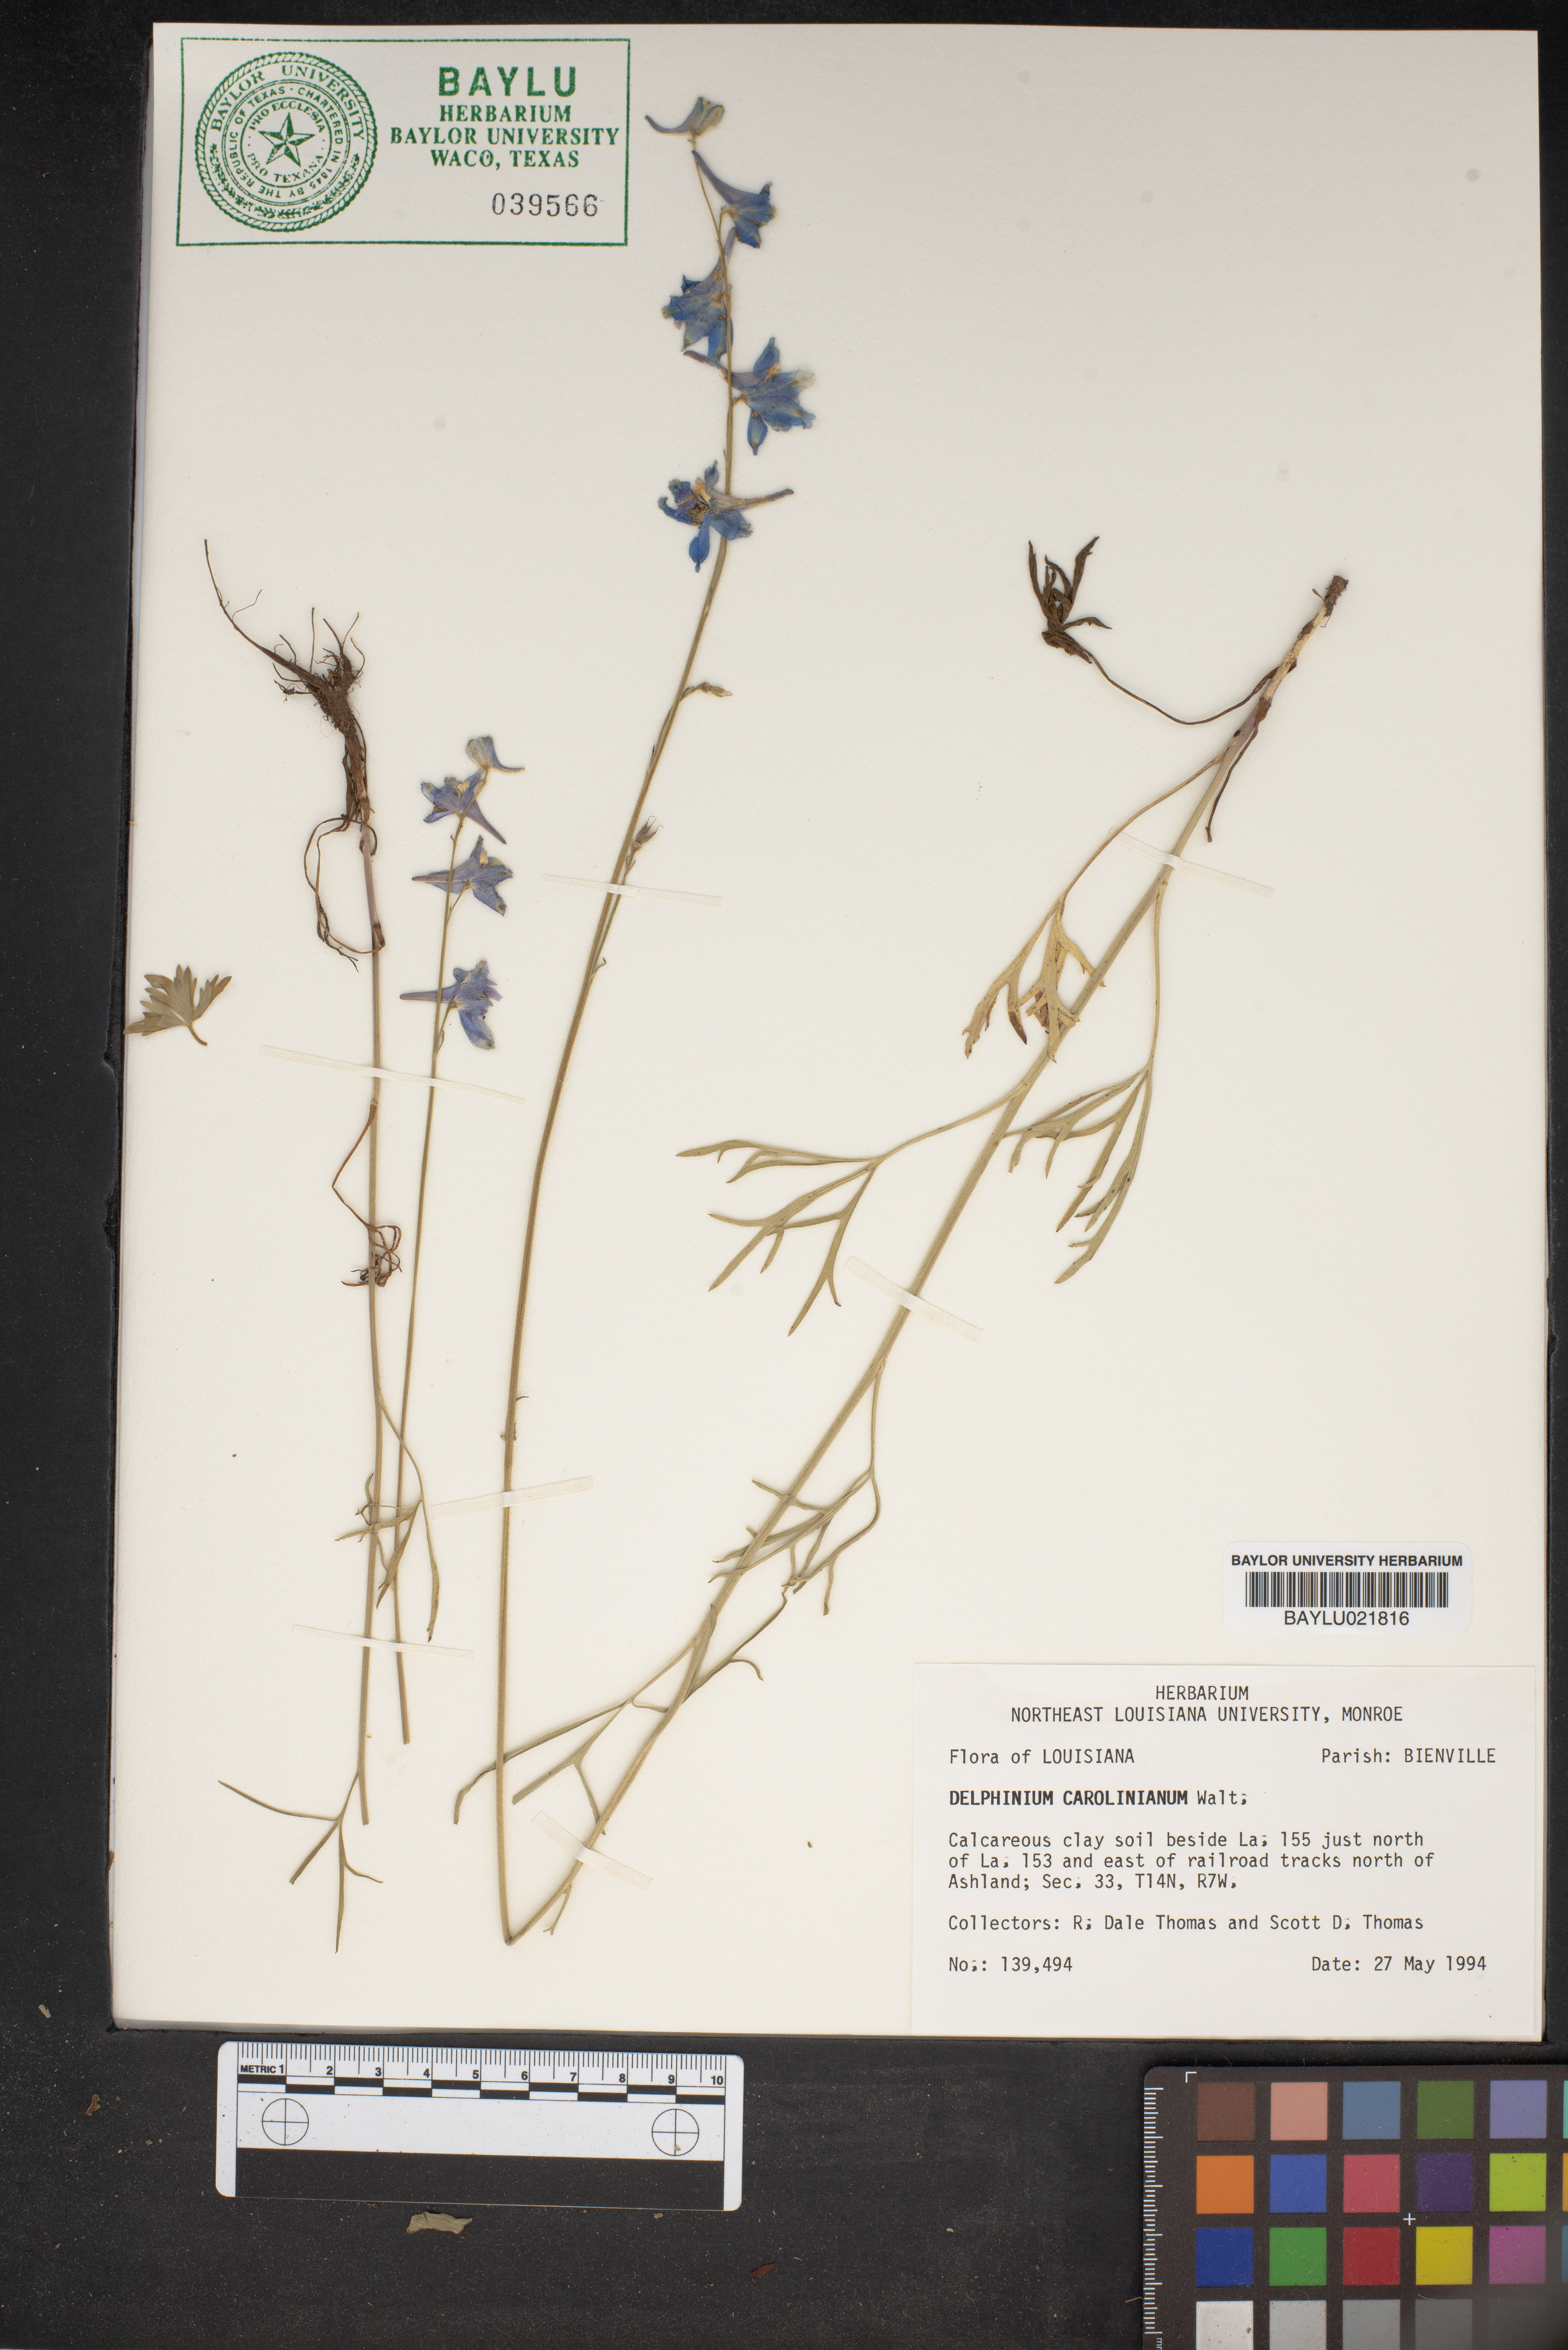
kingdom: Plantae
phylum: Tracheophyta
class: Magnoliopsida
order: Ranunculales
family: Ranunculaceae
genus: Delphinium
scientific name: Delphinium carolinianum
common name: Carolina larkspur
